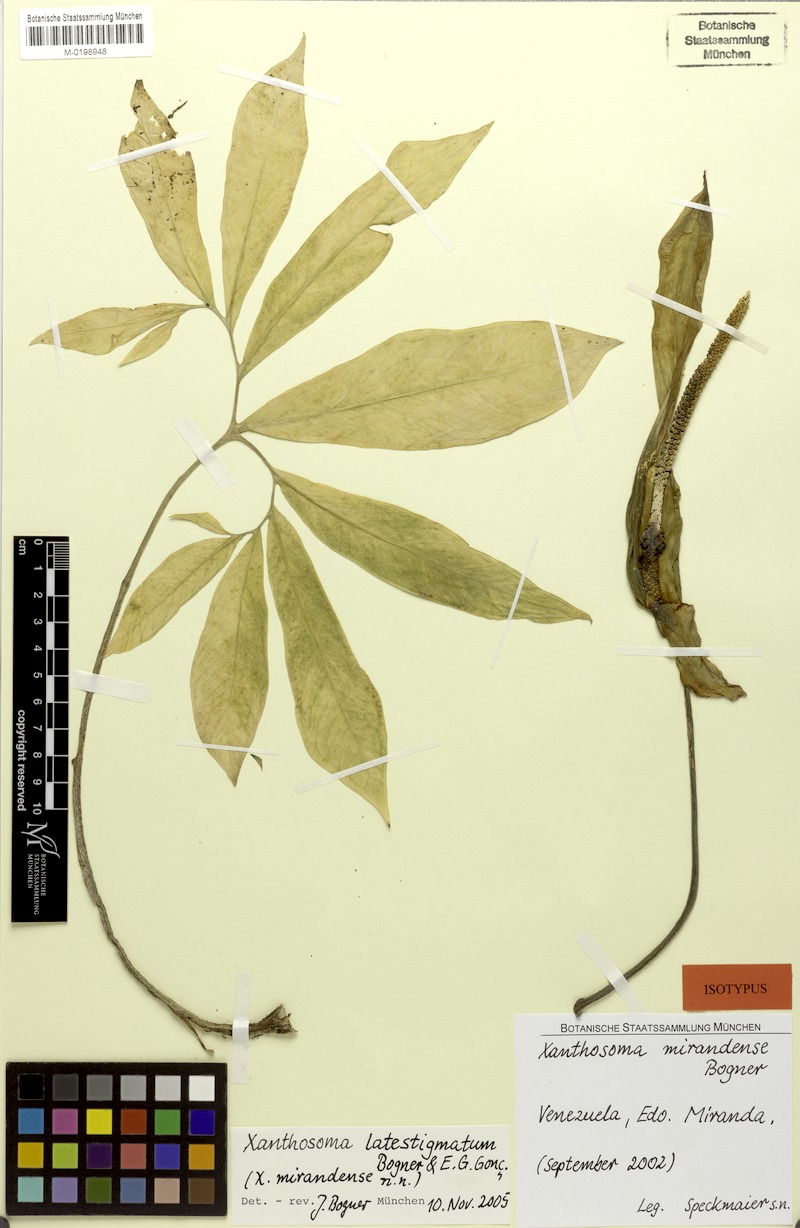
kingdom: Plantae
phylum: Tracheophyta
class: Liliopsida
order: Alismatales
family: Araceae
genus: Xanthosoma
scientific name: Xanthosoma latestigmatum
